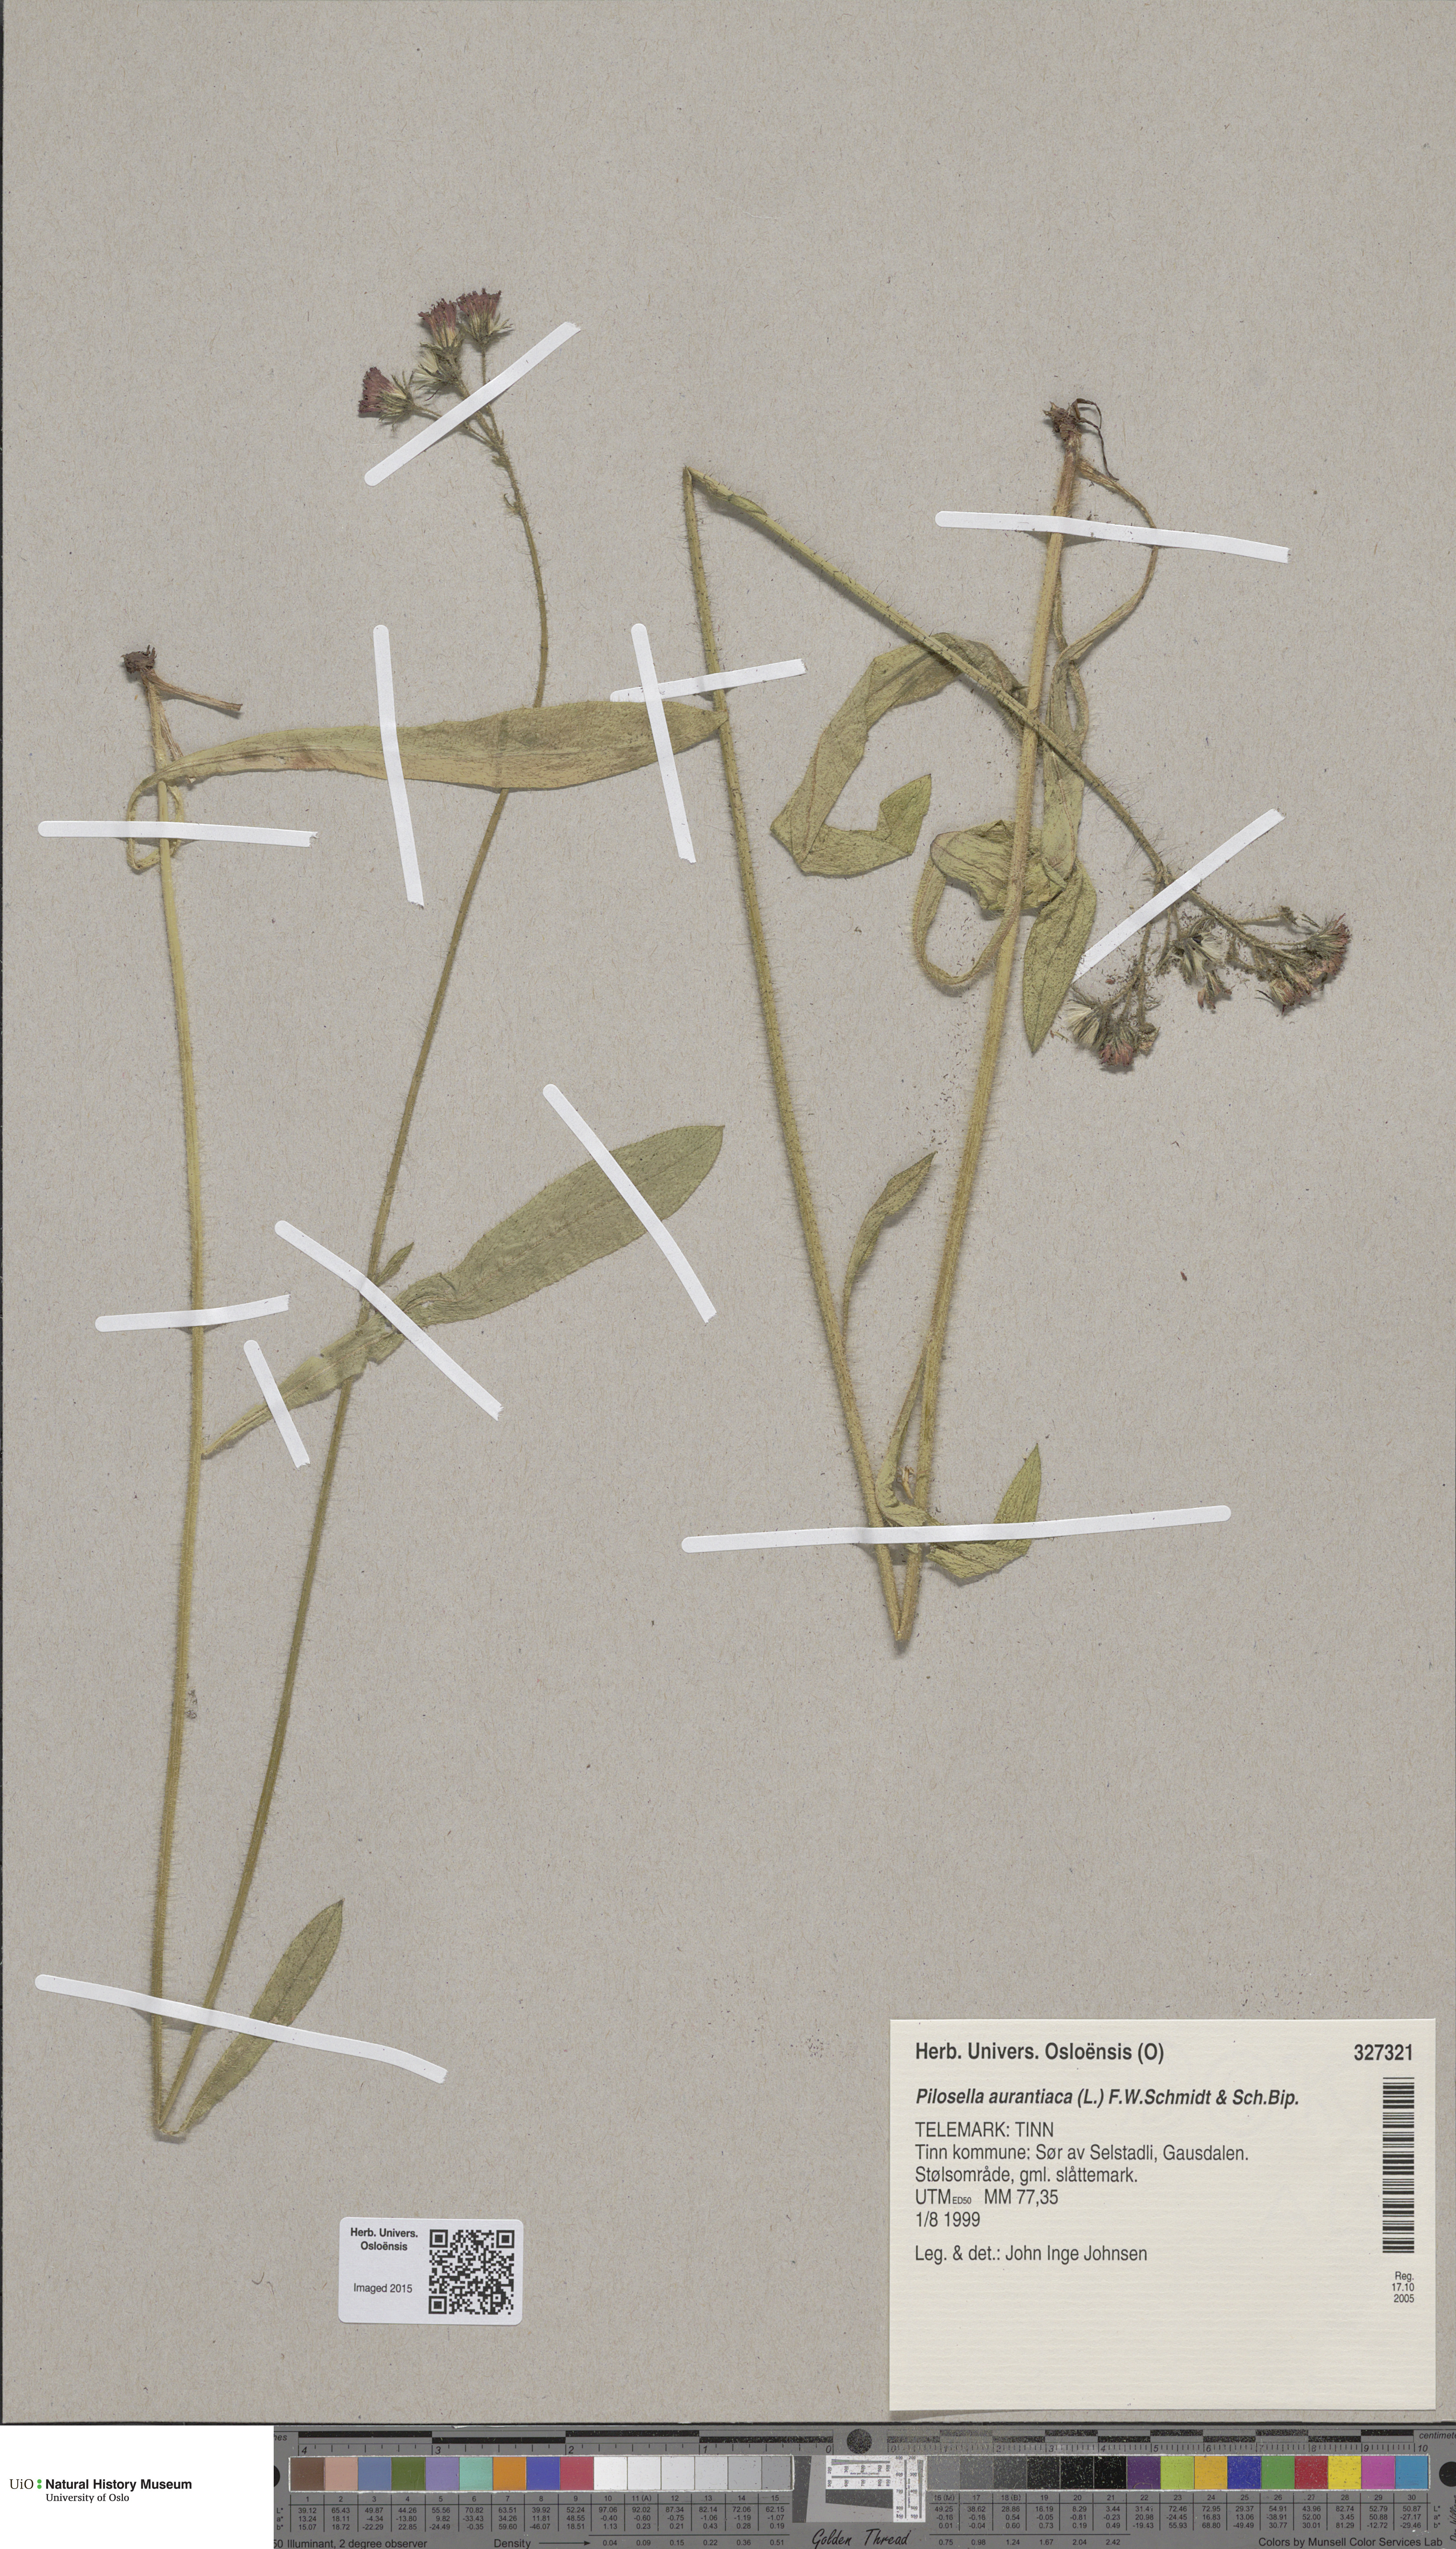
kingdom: Plantae
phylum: Tracheophyta
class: Magnoliopsida
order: Asterales
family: Asteraceae
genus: Pilosella
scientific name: Pilosella aurantiaca
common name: Fox-and-cubs
